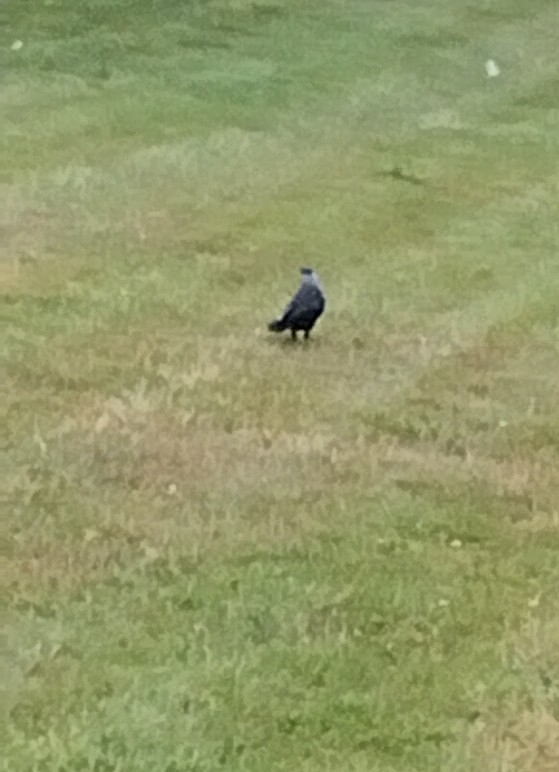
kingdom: Animalia
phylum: Chordata
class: Aves
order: Passeriformes
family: Corvidae
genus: Coloeus
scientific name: Coloeus monedula
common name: Allike
